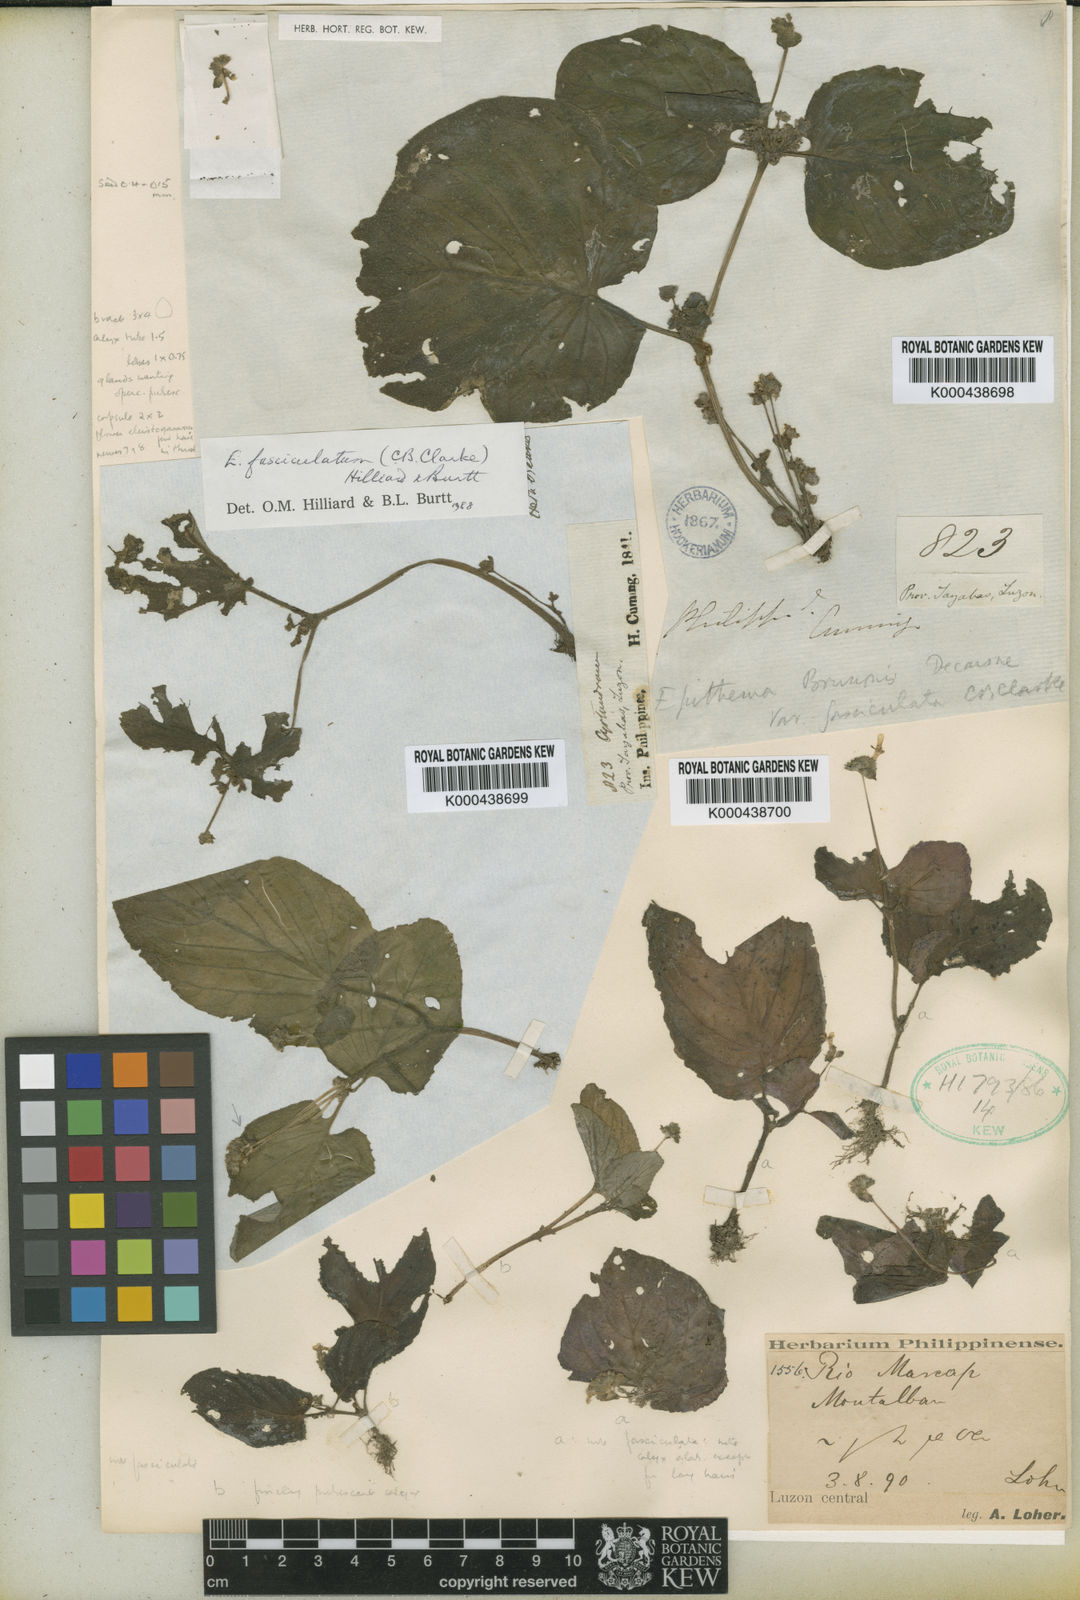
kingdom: Plantae
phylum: Tracheophyta
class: Magnoliopsida
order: Lamiales
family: Gesneriaceae
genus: Epithema
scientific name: Epithema ceylanicum
